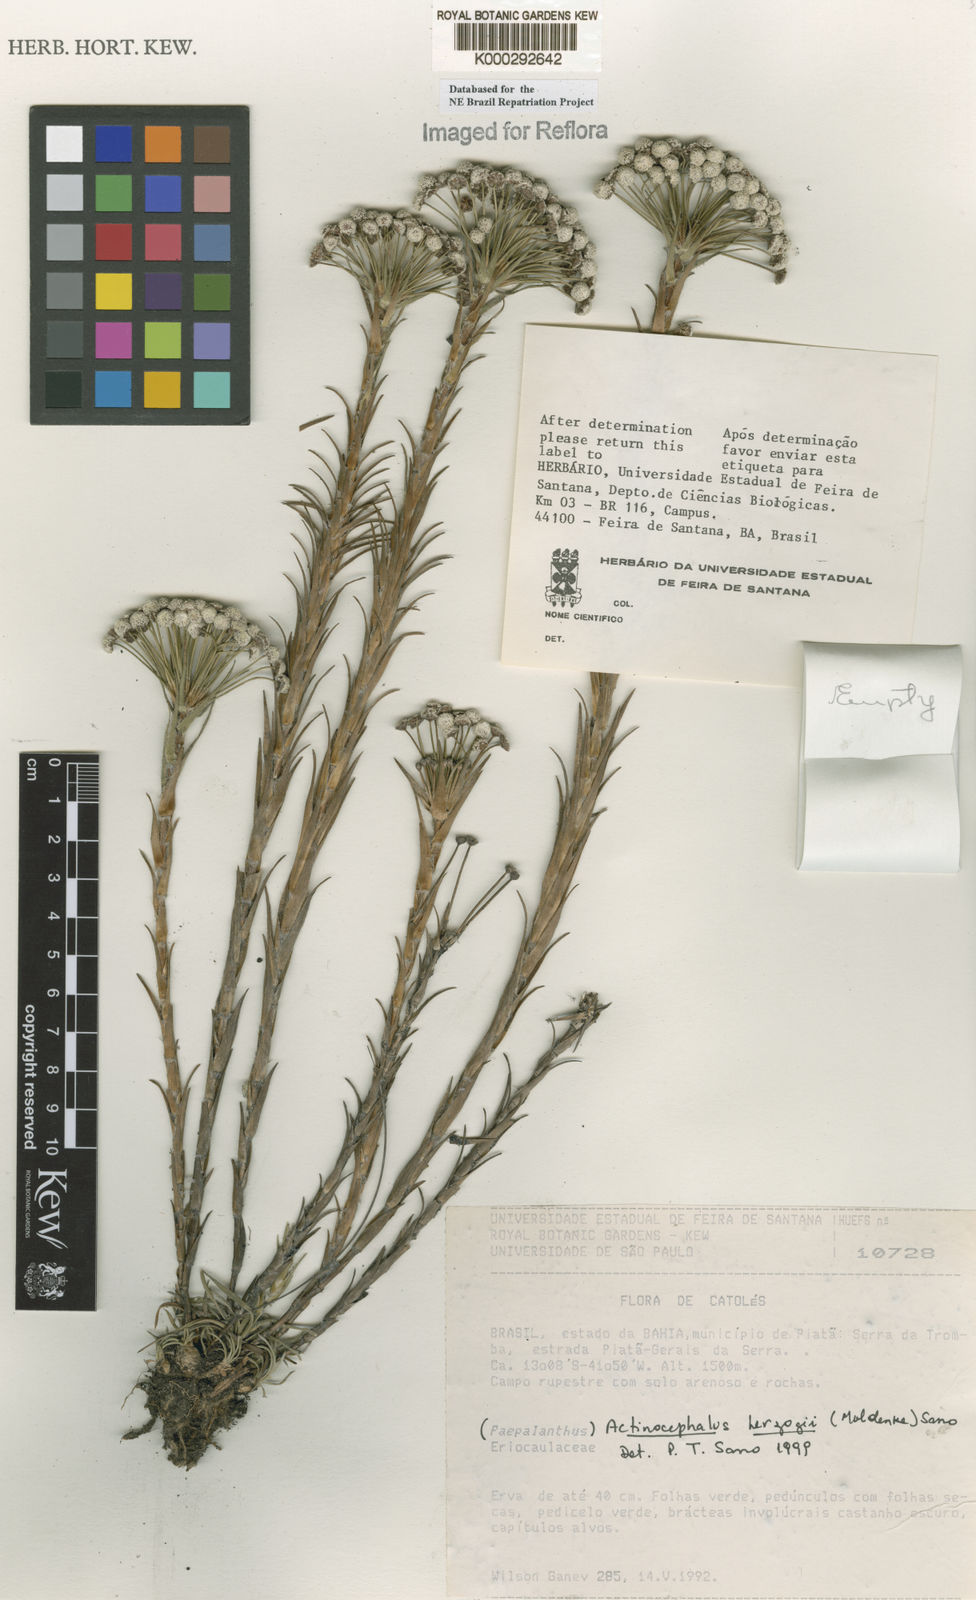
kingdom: Plantae
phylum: Tracheophyta
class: Liliopsida
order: Poales
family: Eriocaulaceae
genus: Paepalanthus
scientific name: Paepalanthus herzogii
